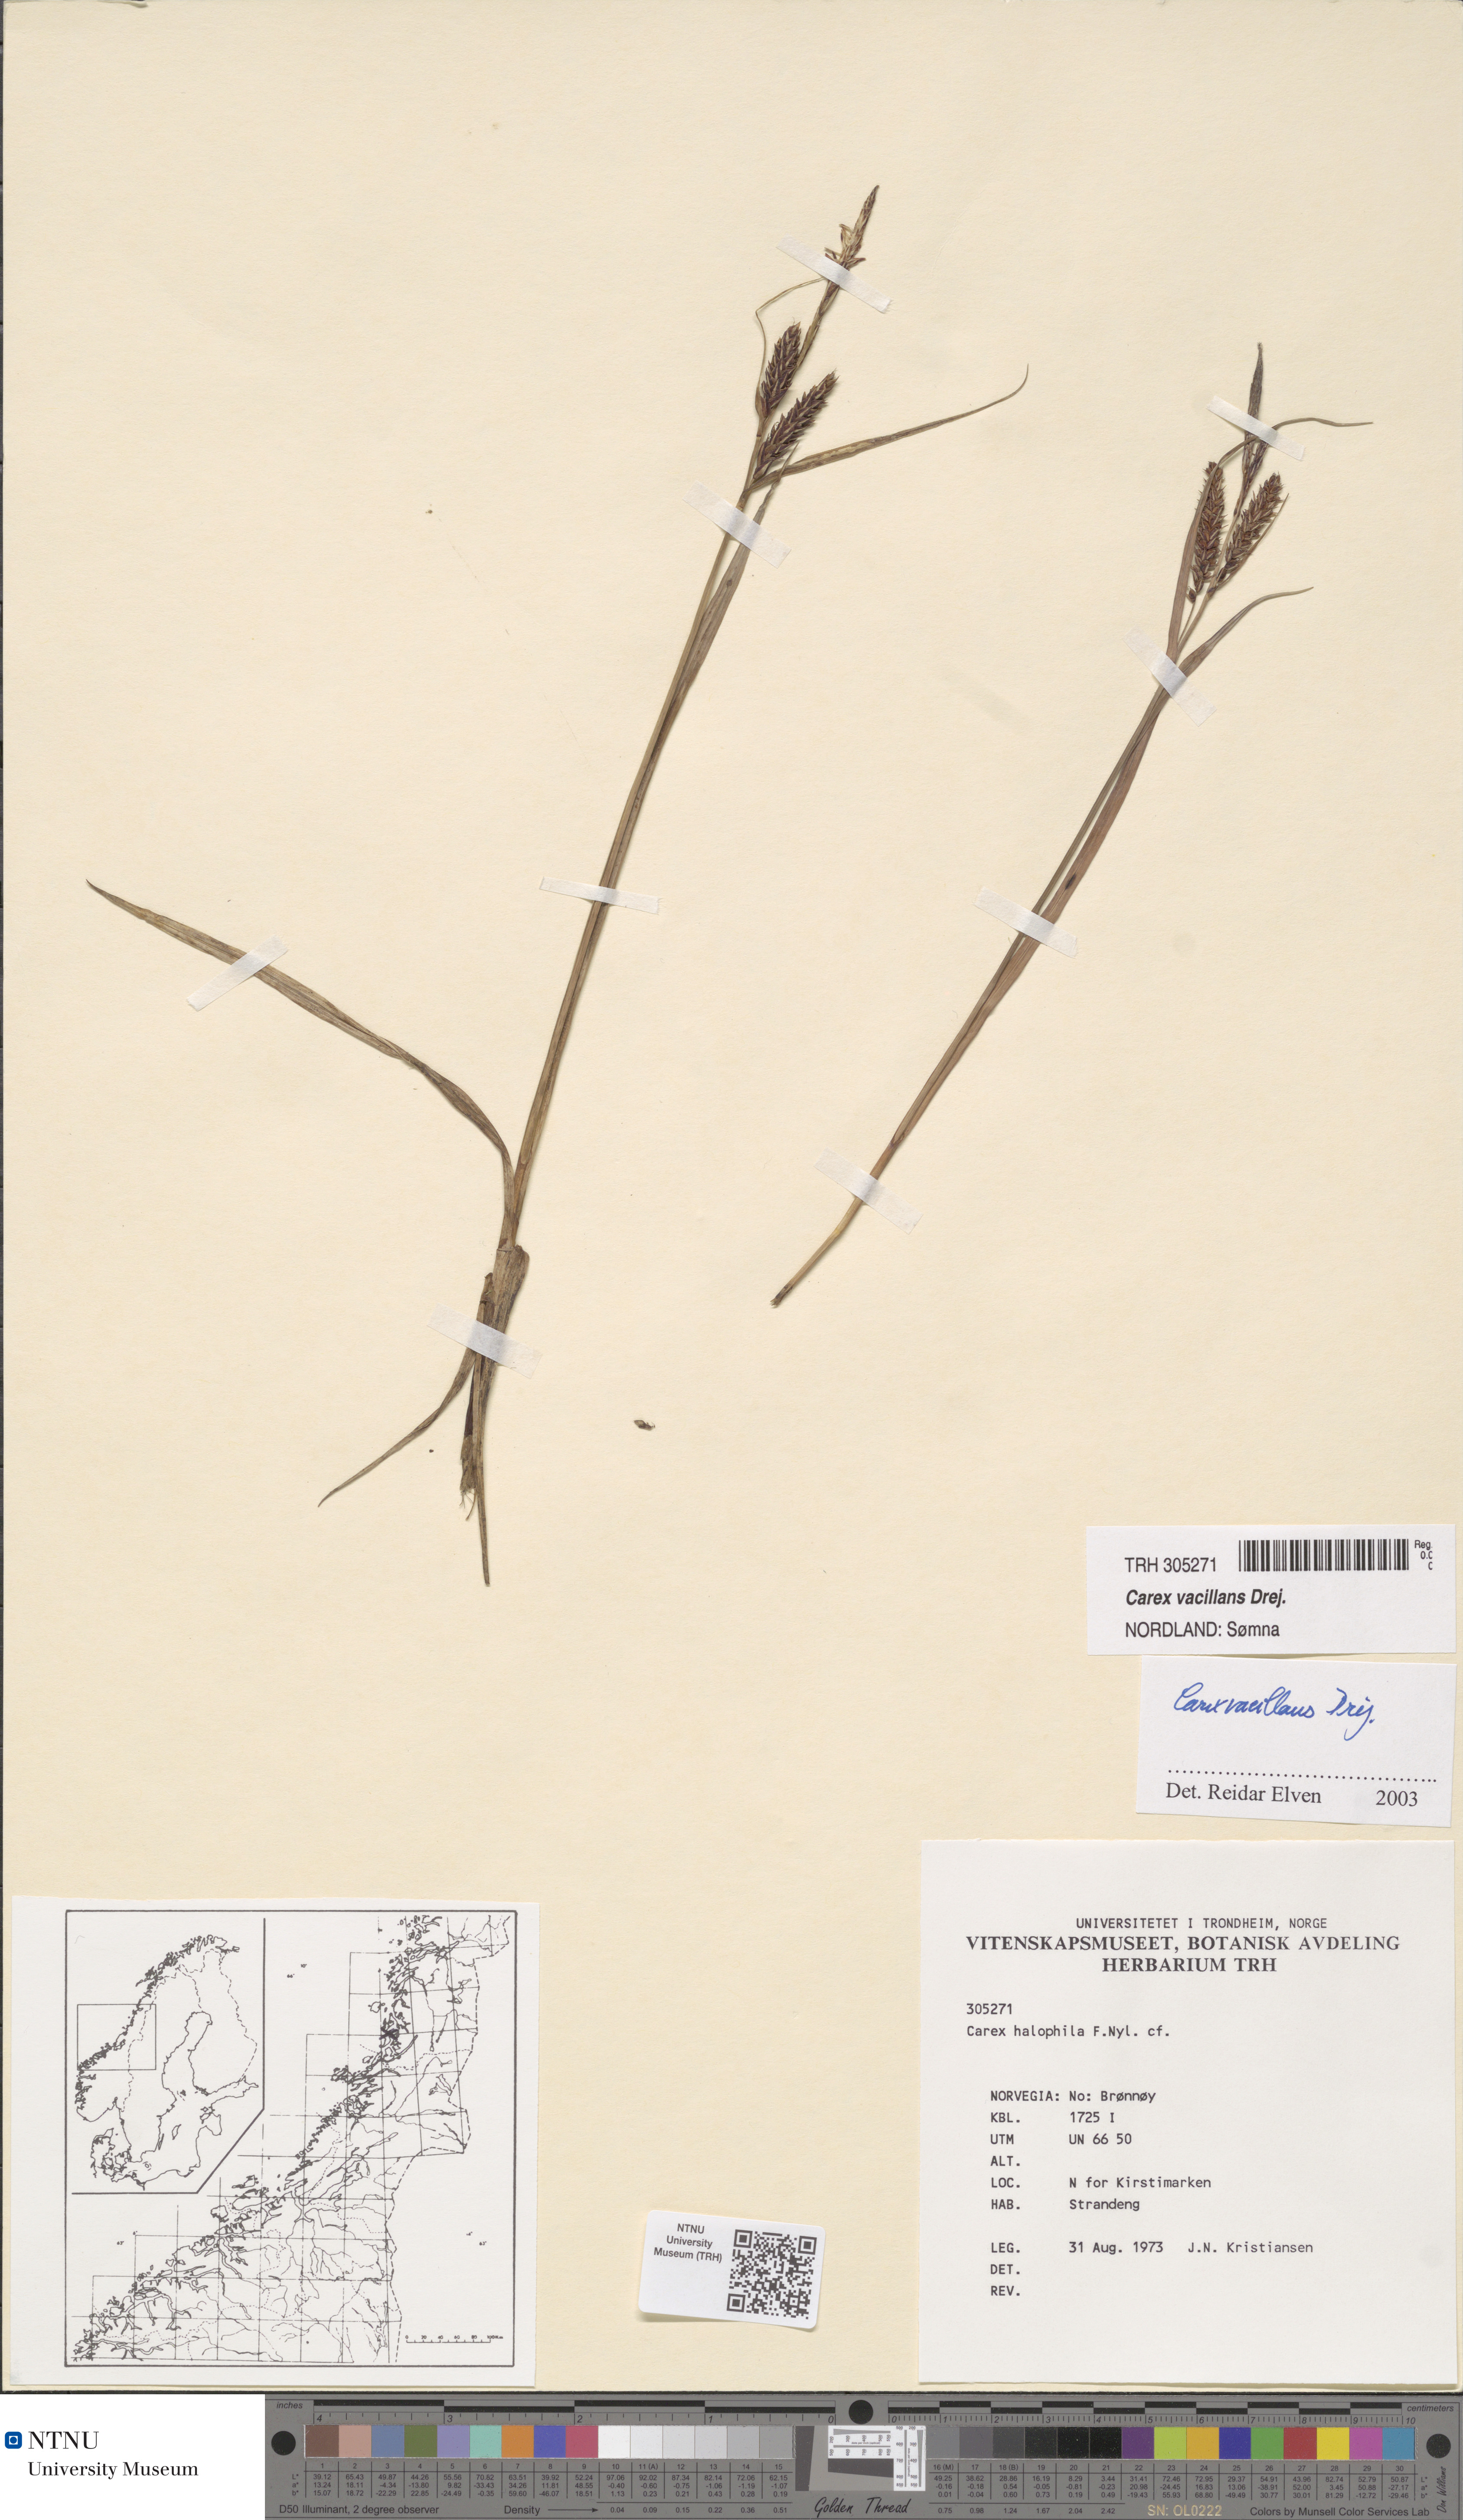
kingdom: Plantae
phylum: Tracheophyta
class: Liliopsida
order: Poales
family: Cyperaceae
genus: Carex
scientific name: Carex vacillans
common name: Sedge
